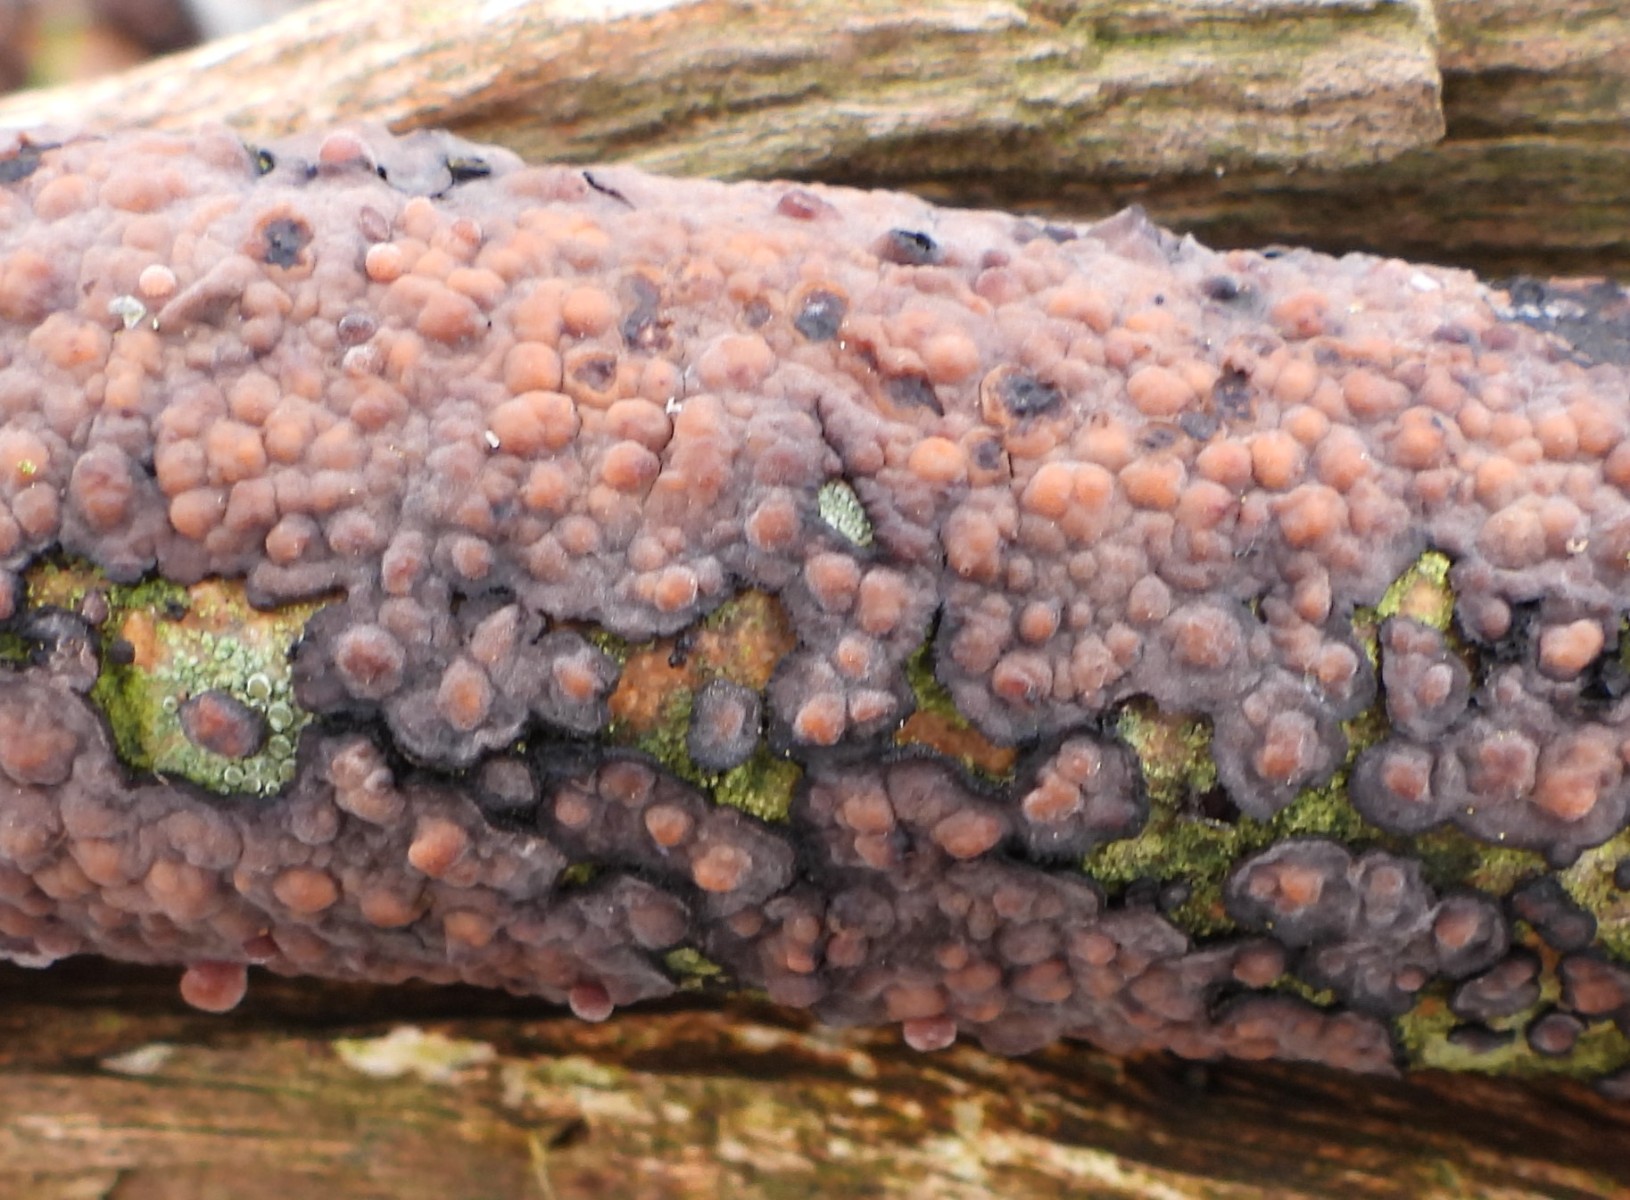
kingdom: Fungi
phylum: Basidiomycota
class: Agaricomycetes
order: Russulales
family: Peniophoraceae
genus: Peniophora
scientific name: Peniophora quercina
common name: ege-voksskind
